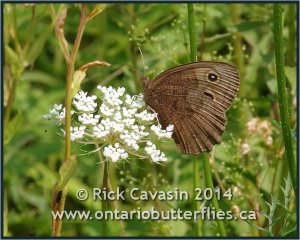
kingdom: Animalia
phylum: Arthropoda
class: Insecta
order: Lepidoptera
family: Nymphalidae
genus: Cercyonis
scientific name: Cercyonis pegala
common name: Common Wood-Nymph
